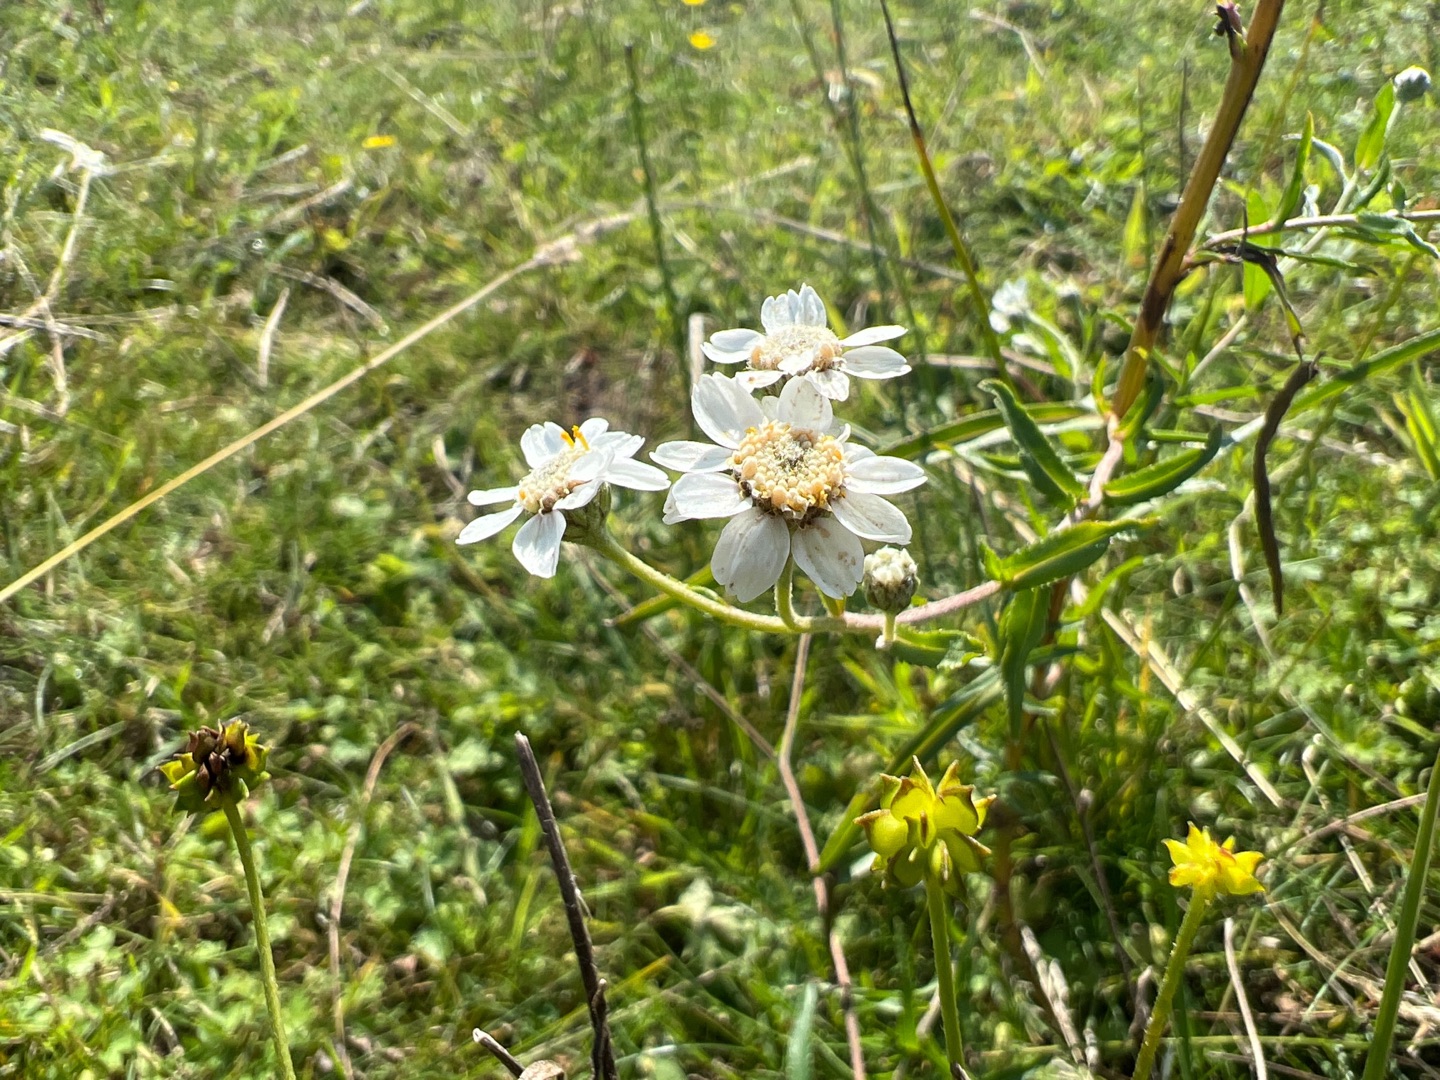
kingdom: Plantae
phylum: Tracheophyta
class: Magnoliopsida
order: Asterales
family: Asteraceae
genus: Achillea
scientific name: Achillea ptarmica
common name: Nyse-røllike
